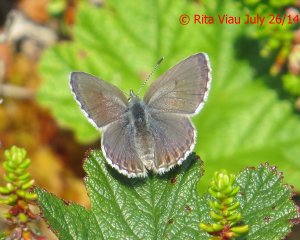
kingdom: Animalia
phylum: Arthropoda
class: Insecta
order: Lepidoptera
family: Lycaenidae
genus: Lycaeides
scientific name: Lycaeides idas
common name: Northern Blue
